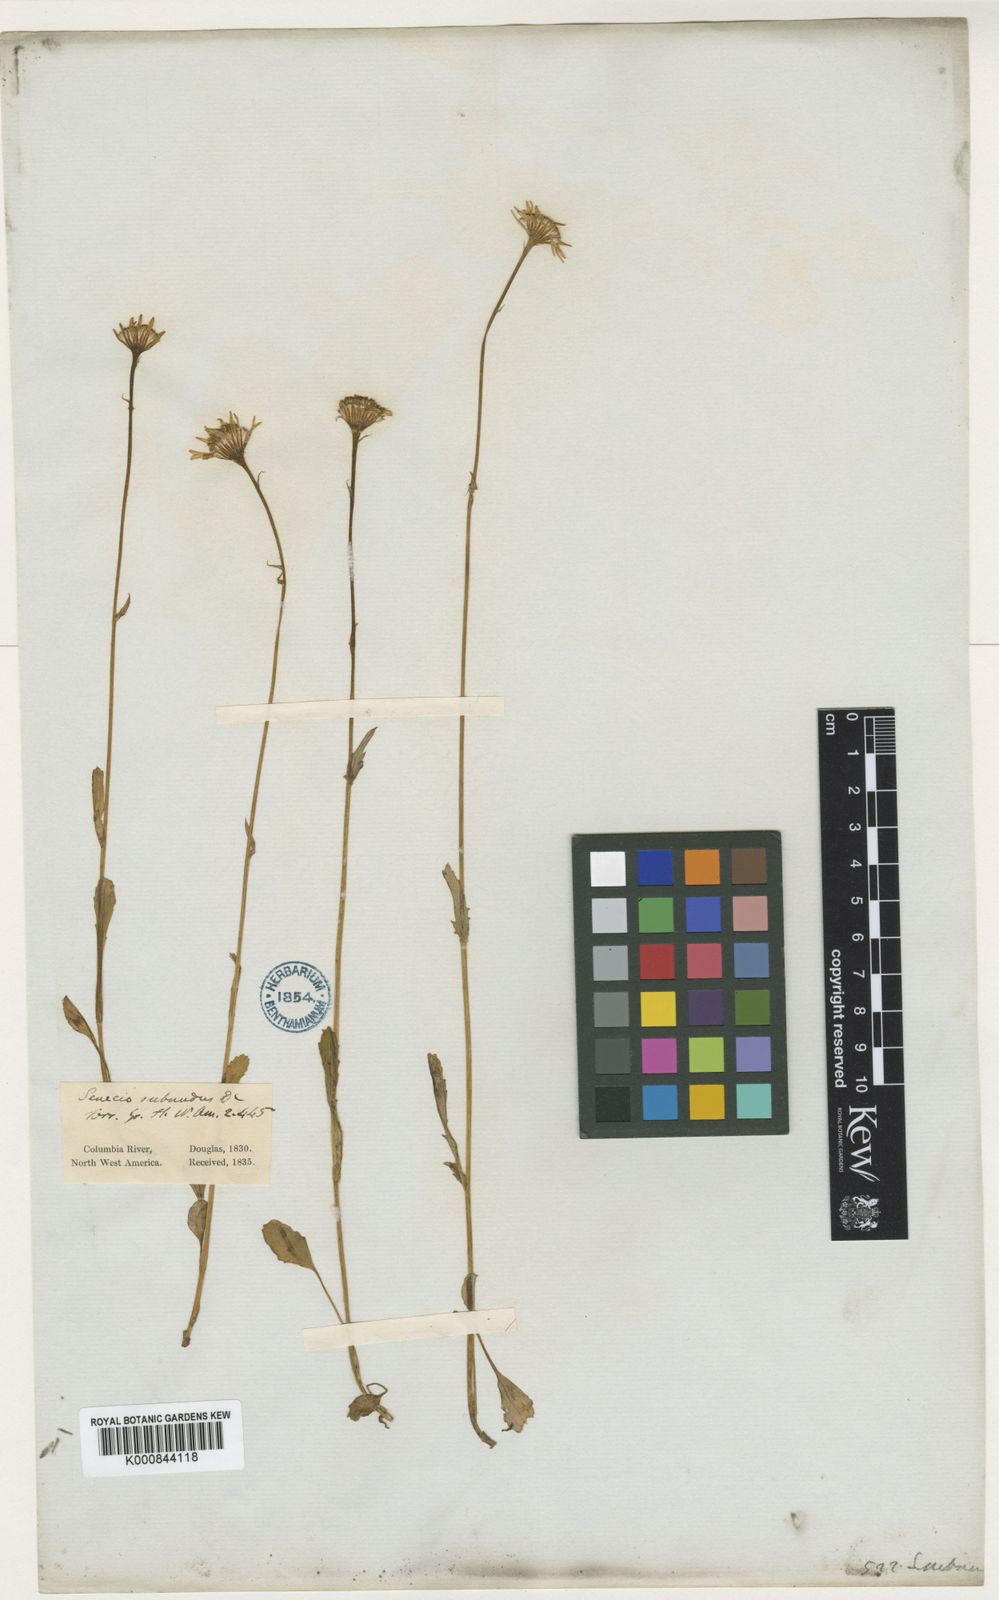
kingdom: Plantae
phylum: Tracheophyta
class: Magnoliopsida
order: Asterales
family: Asteraceae
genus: Packera
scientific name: Packera
